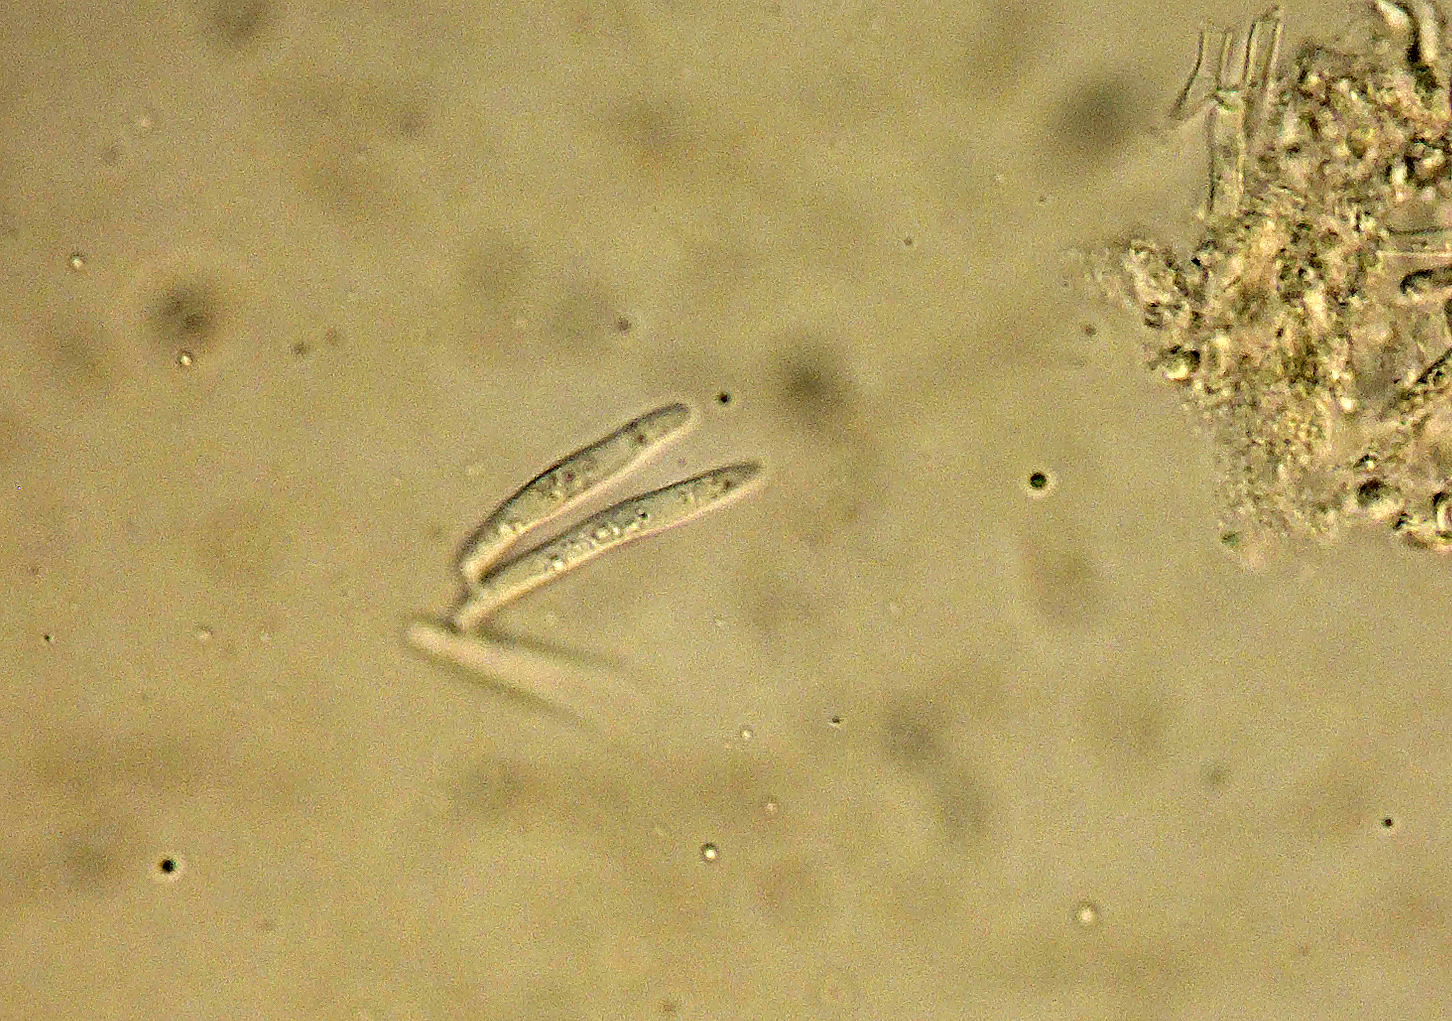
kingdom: Fungi
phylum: Ascomycota
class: Dothideomycetes
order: Mycosphaerellales
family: Mycosphaerellaceae
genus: Mycosphaerella
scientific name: Mycosphaerella populi
